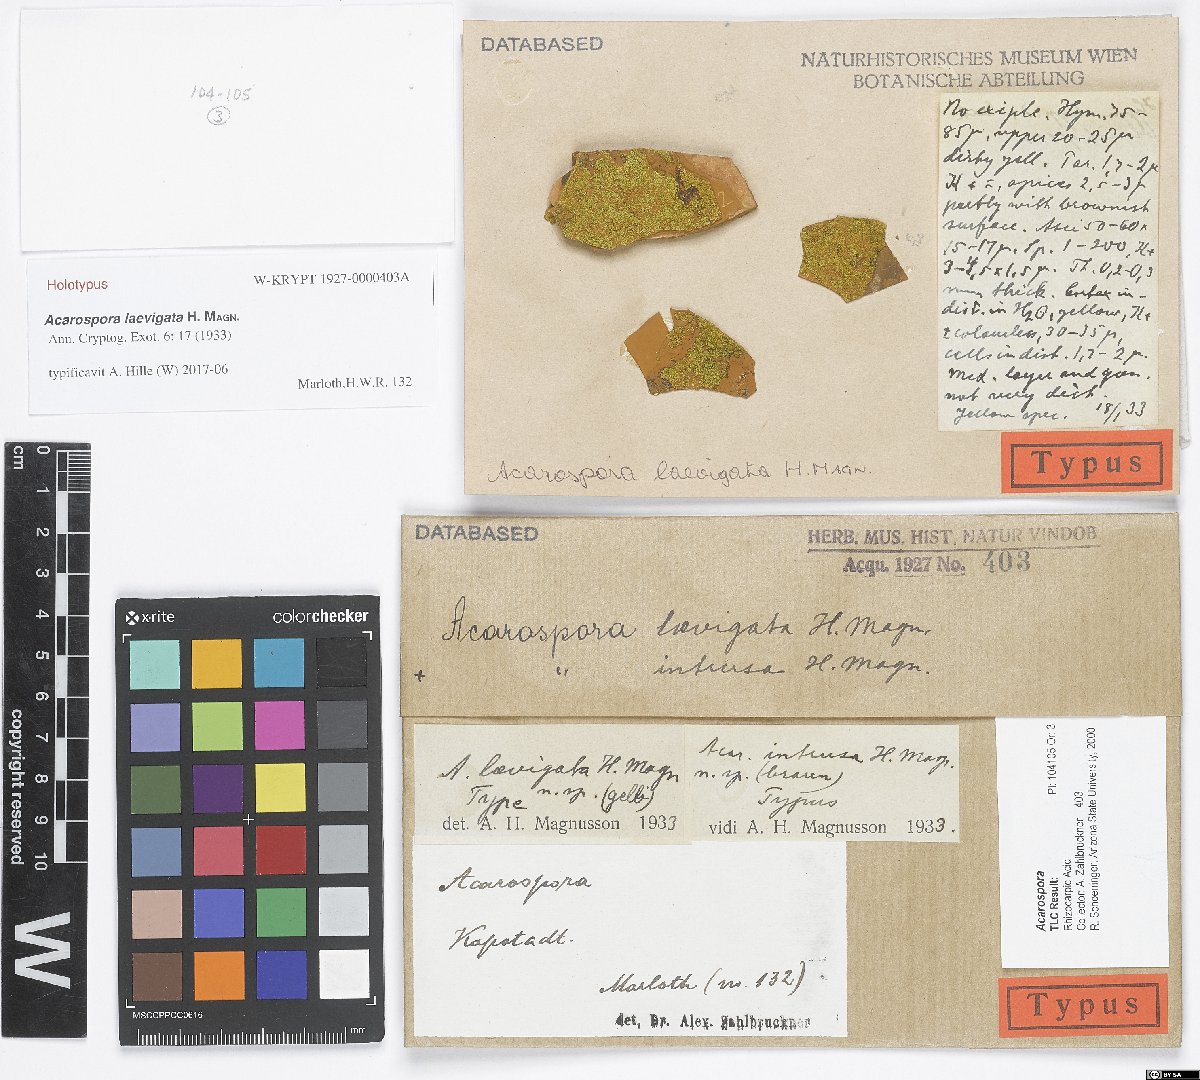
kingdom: Fungi
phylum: Ascomycota
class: Lecanoromycetes
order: Acarosporales
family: Acarosporaceae
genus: Acarospora
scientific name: Acarospora
